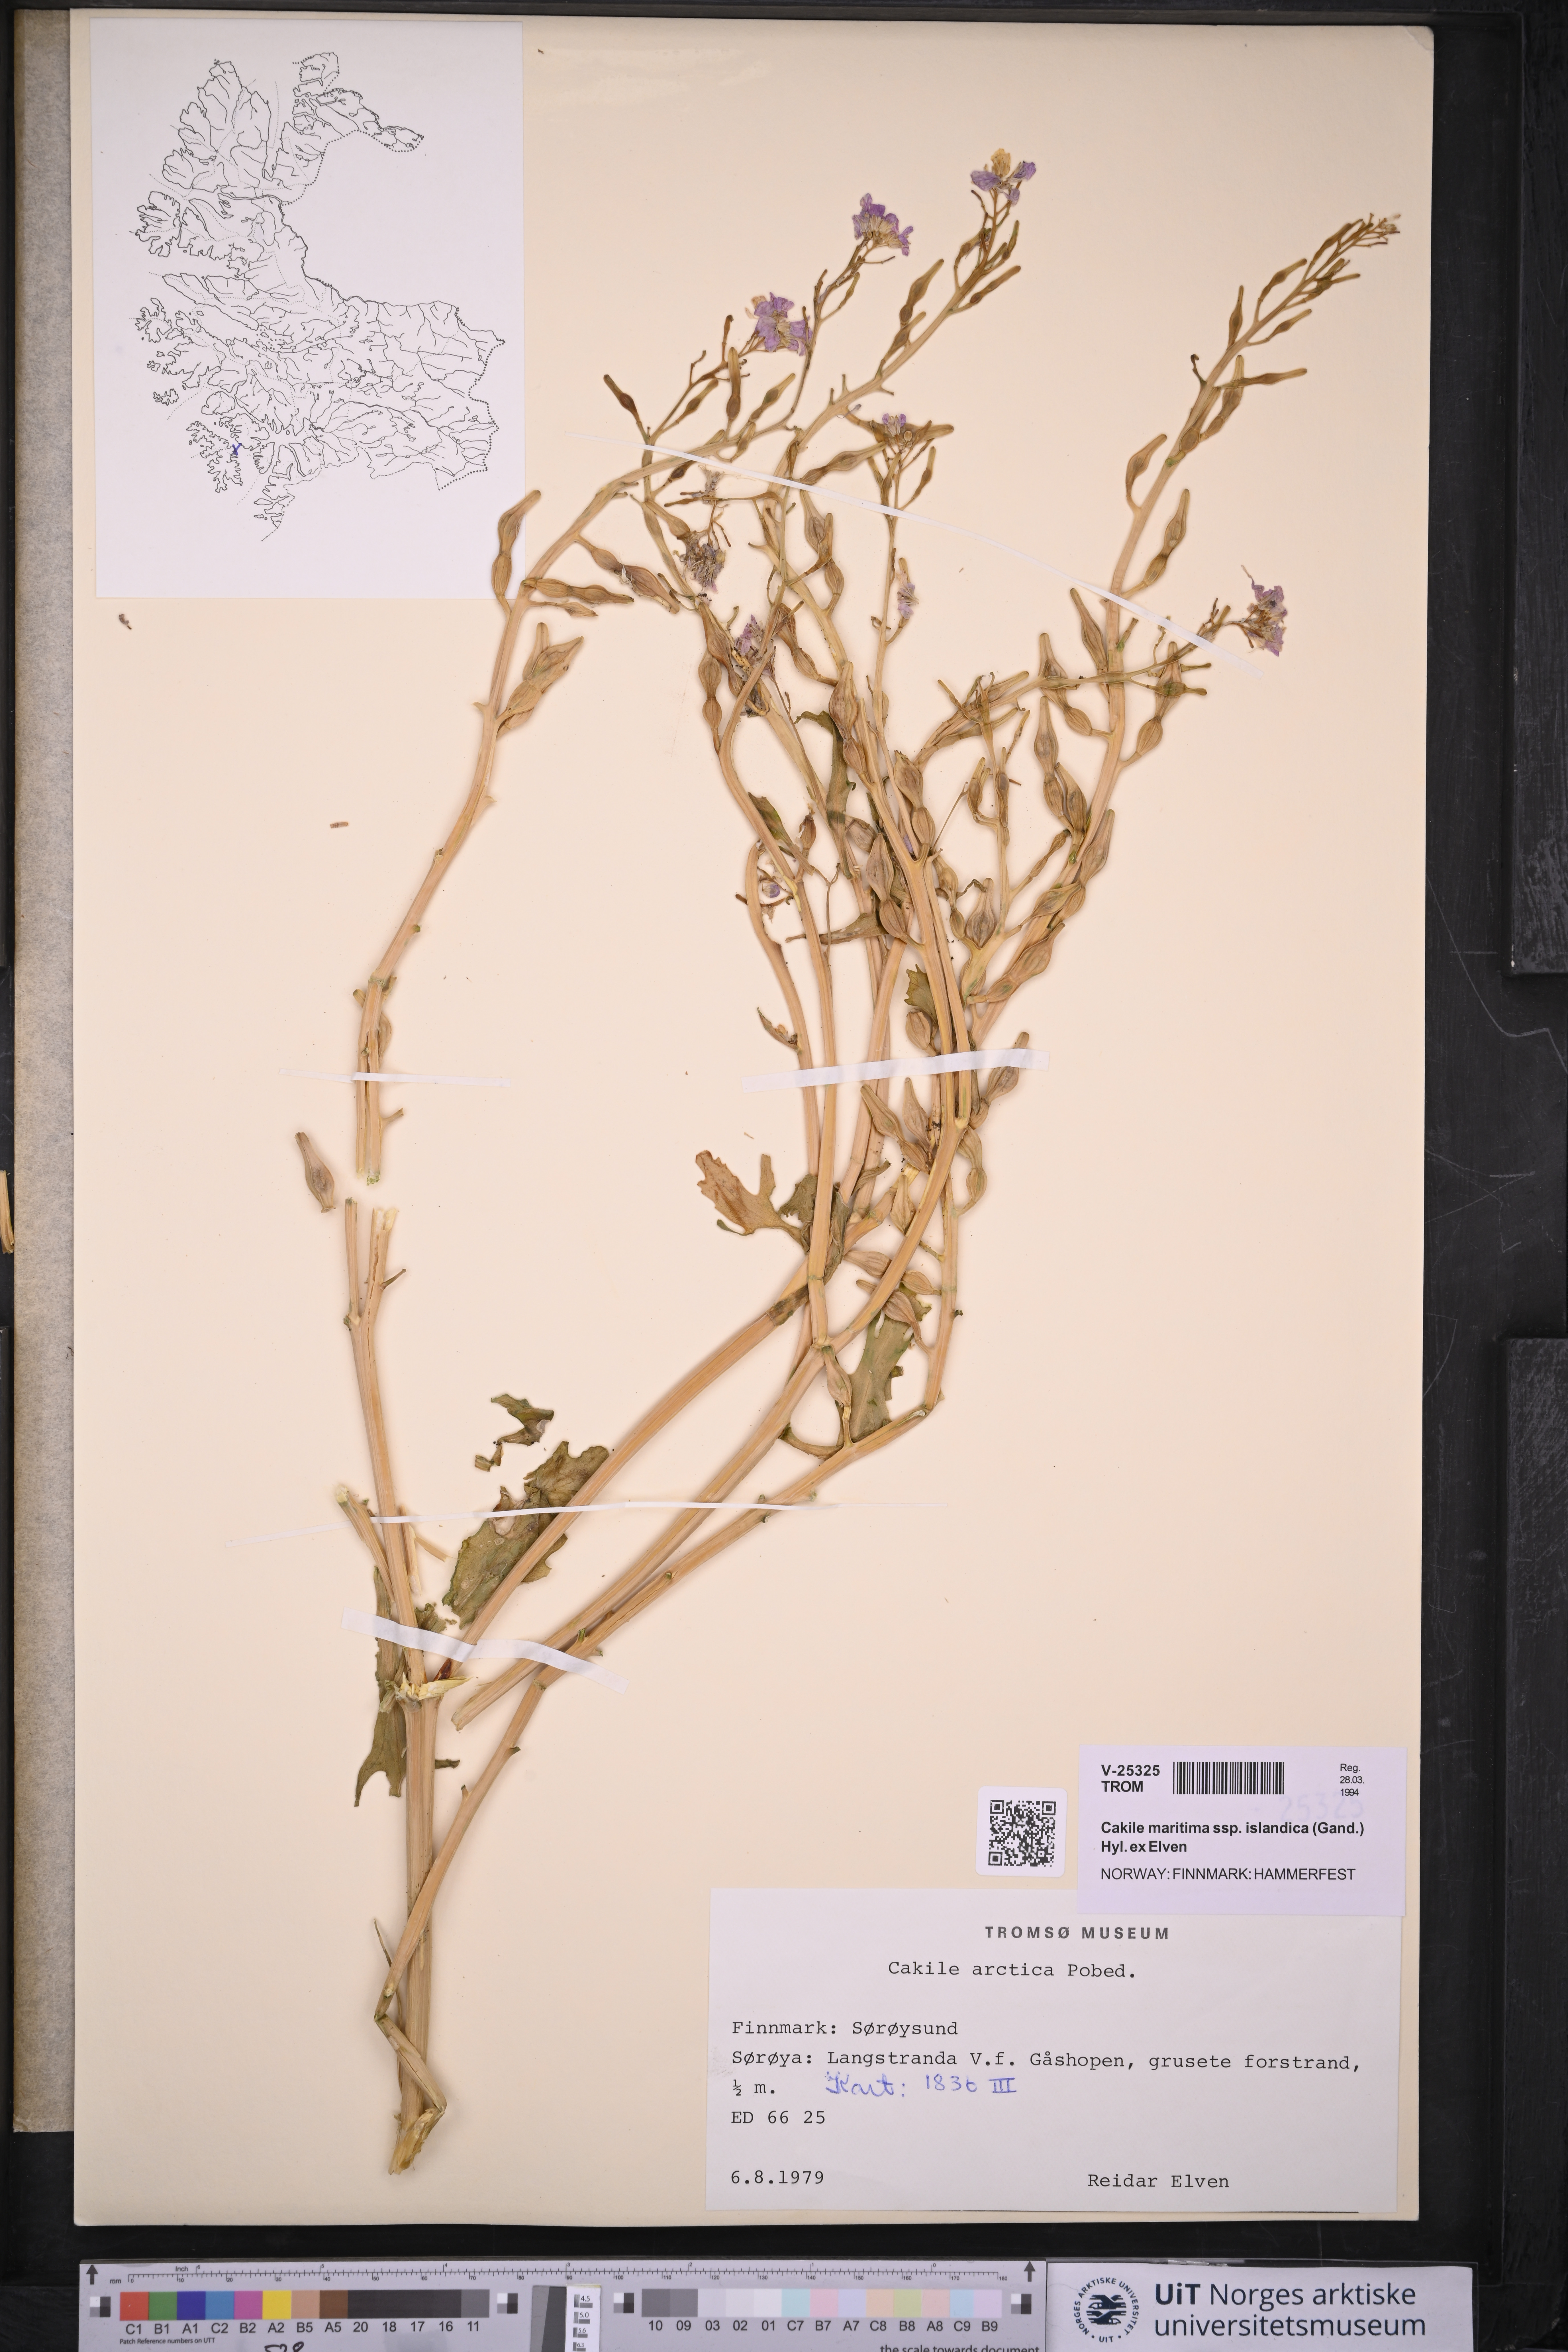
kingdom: Plantae
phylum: Tracheophyta
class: Magnoliopsida
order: Brassicales
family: Brassicaceae
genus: Cakile
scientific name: Cakile arctica
